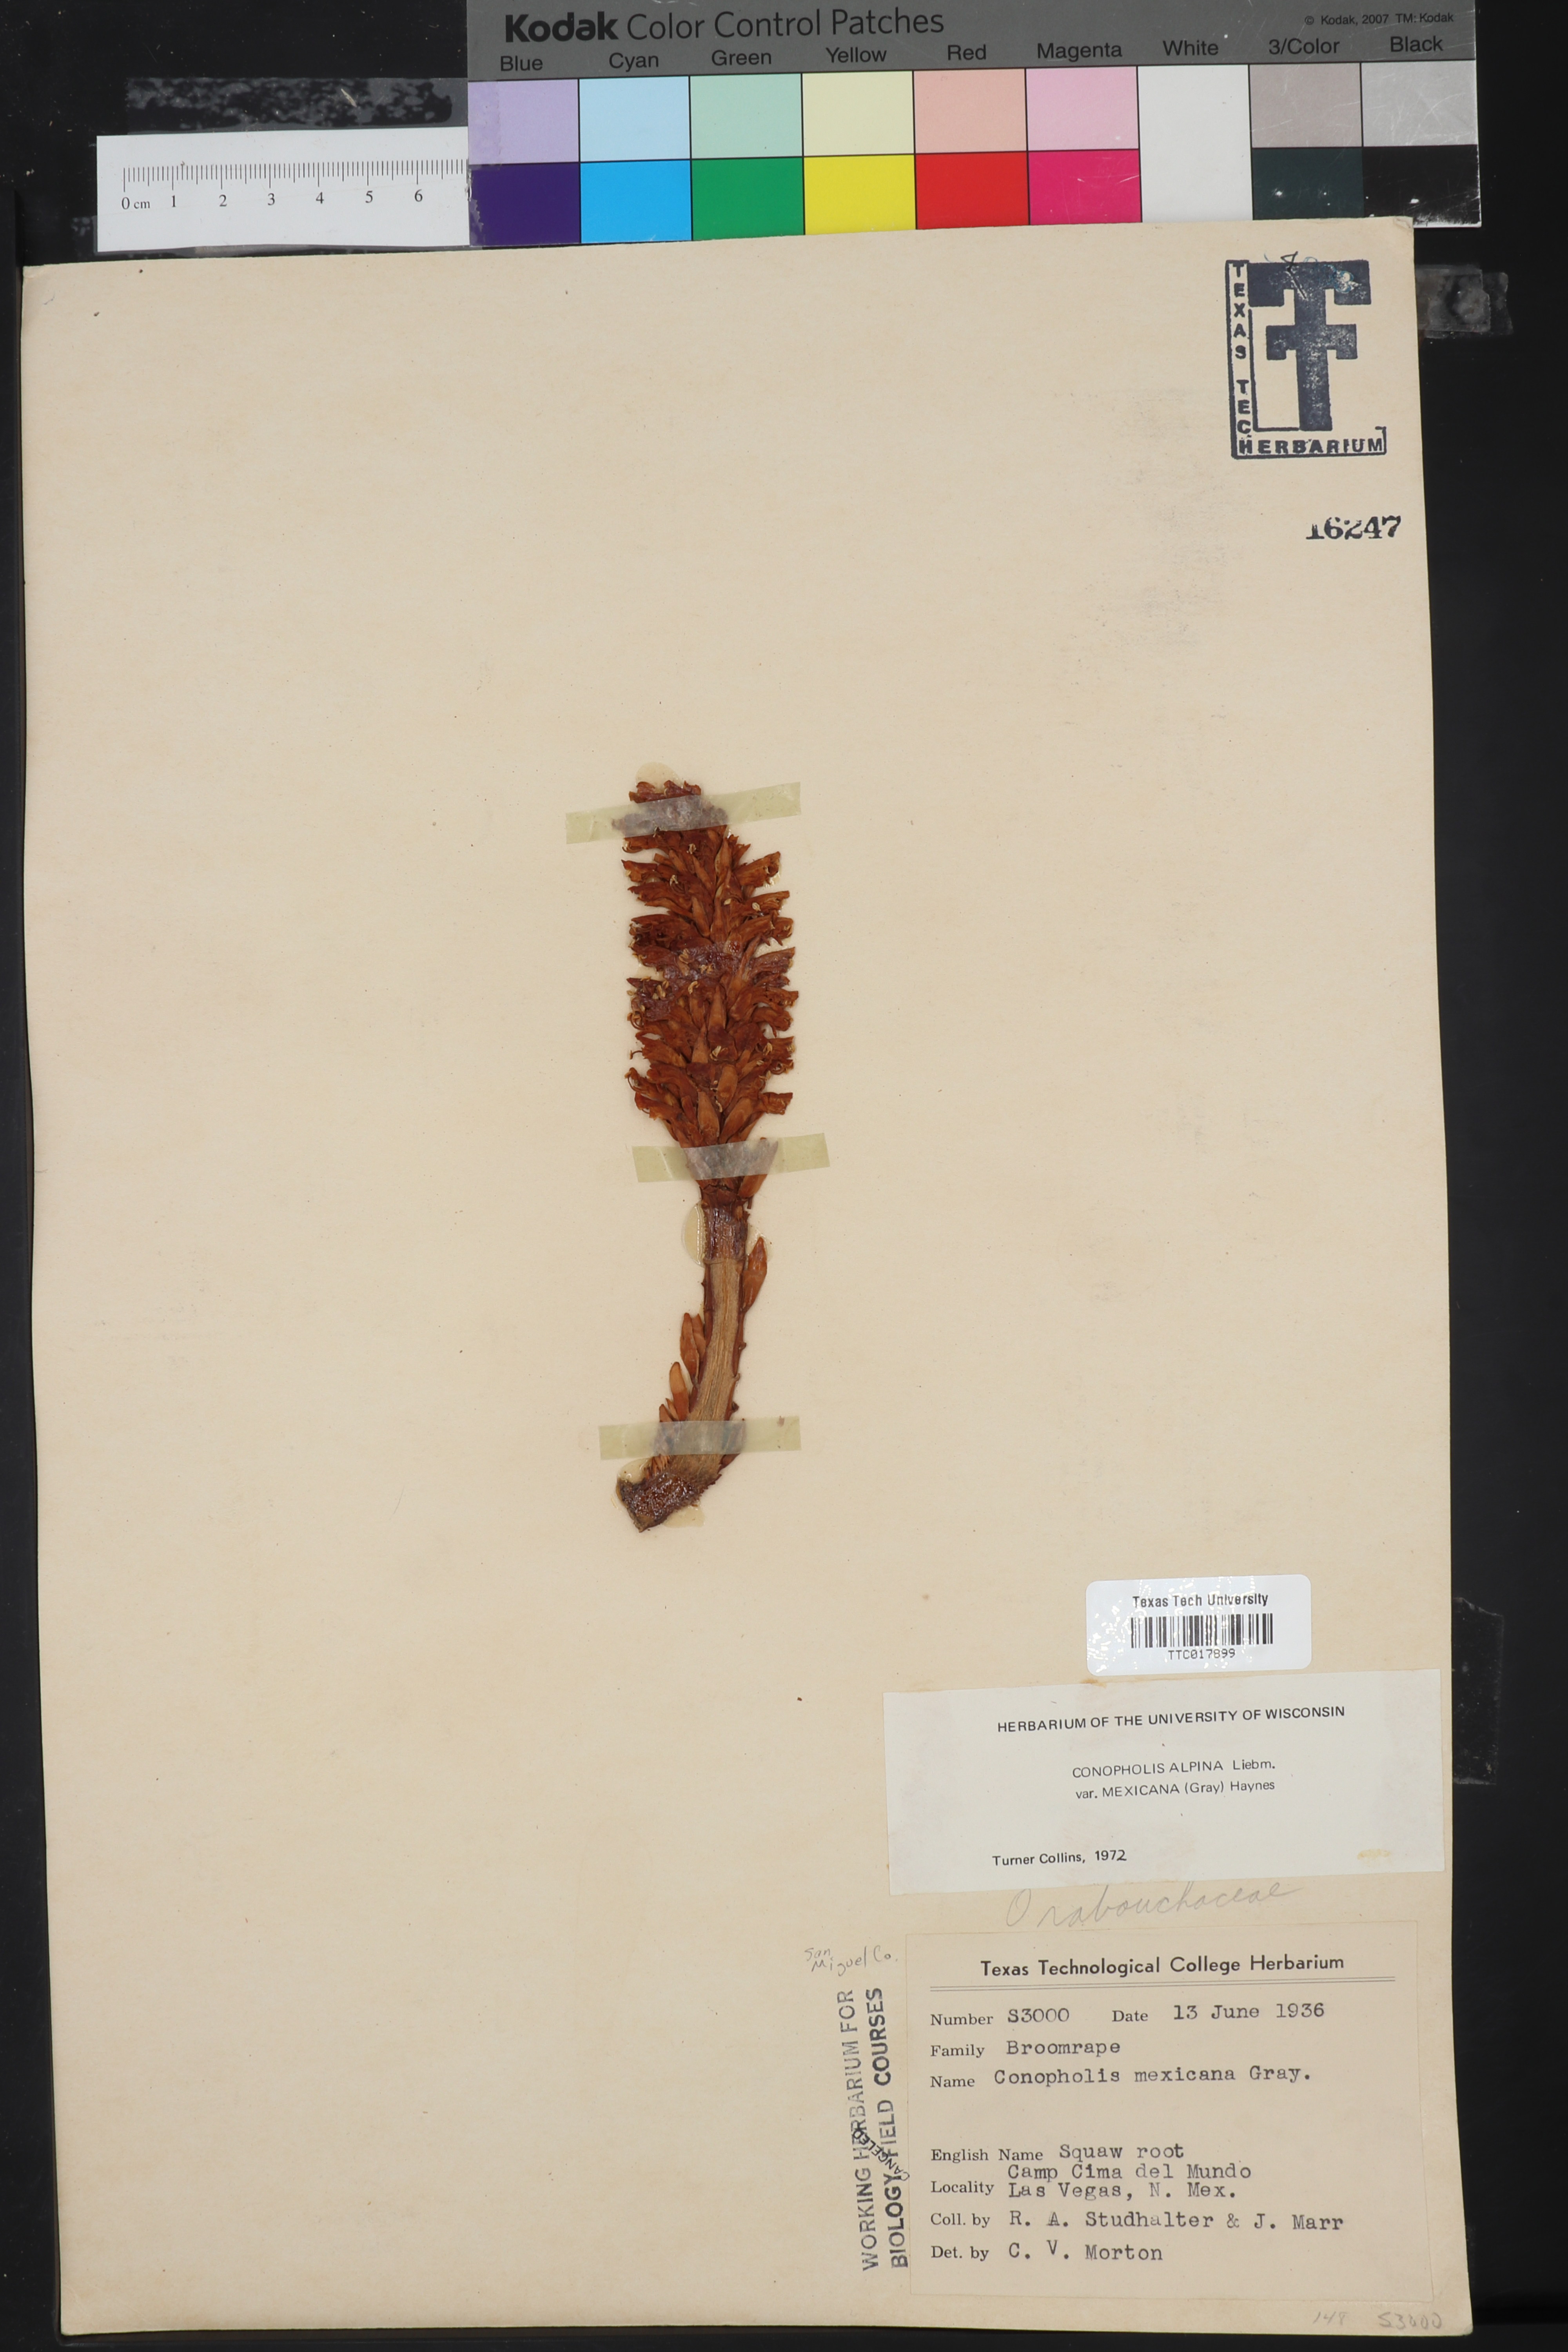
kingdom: Plantae
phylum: Tracheophyta
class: Magnoliopsida
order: Lamiales
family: Orobanchaceae
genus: Conopholis
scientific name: Conopholis alpina
